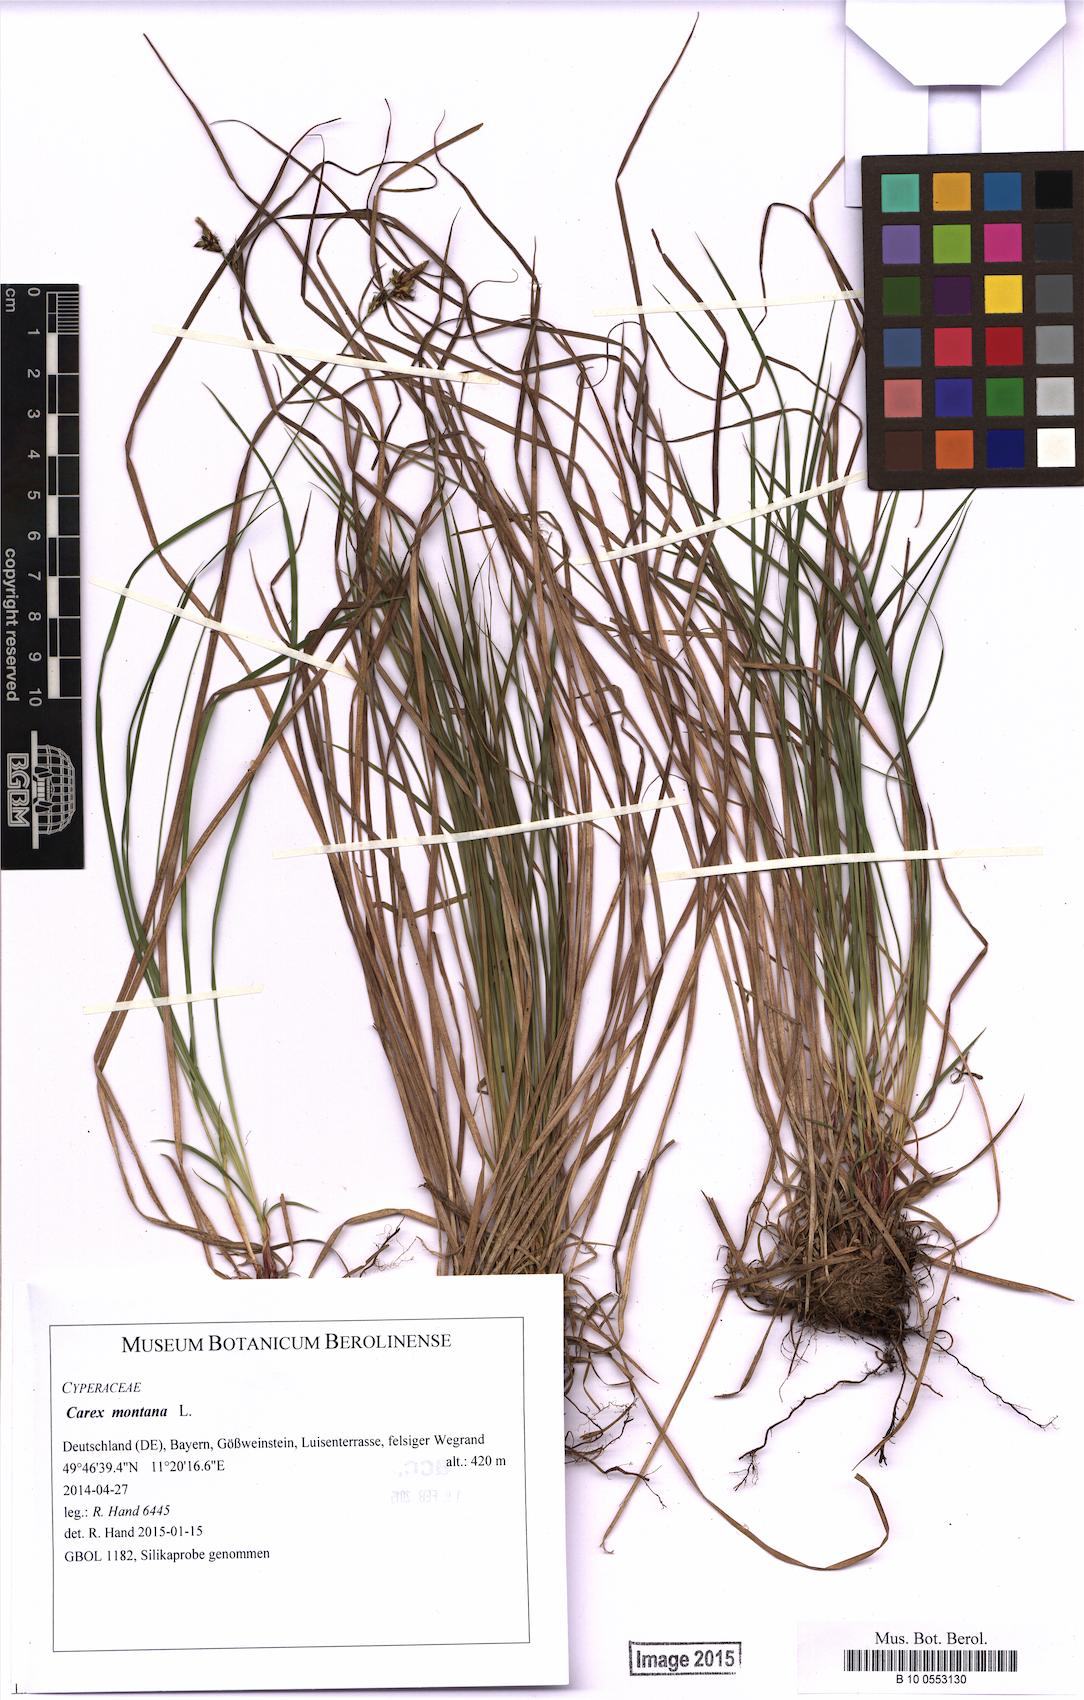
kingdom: Plantae
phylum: Tracheophyta
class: Liliopsida
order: Poales
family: Cyperaceae
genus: Carex
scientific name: Carex montana
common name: Soft-leaved sedge
